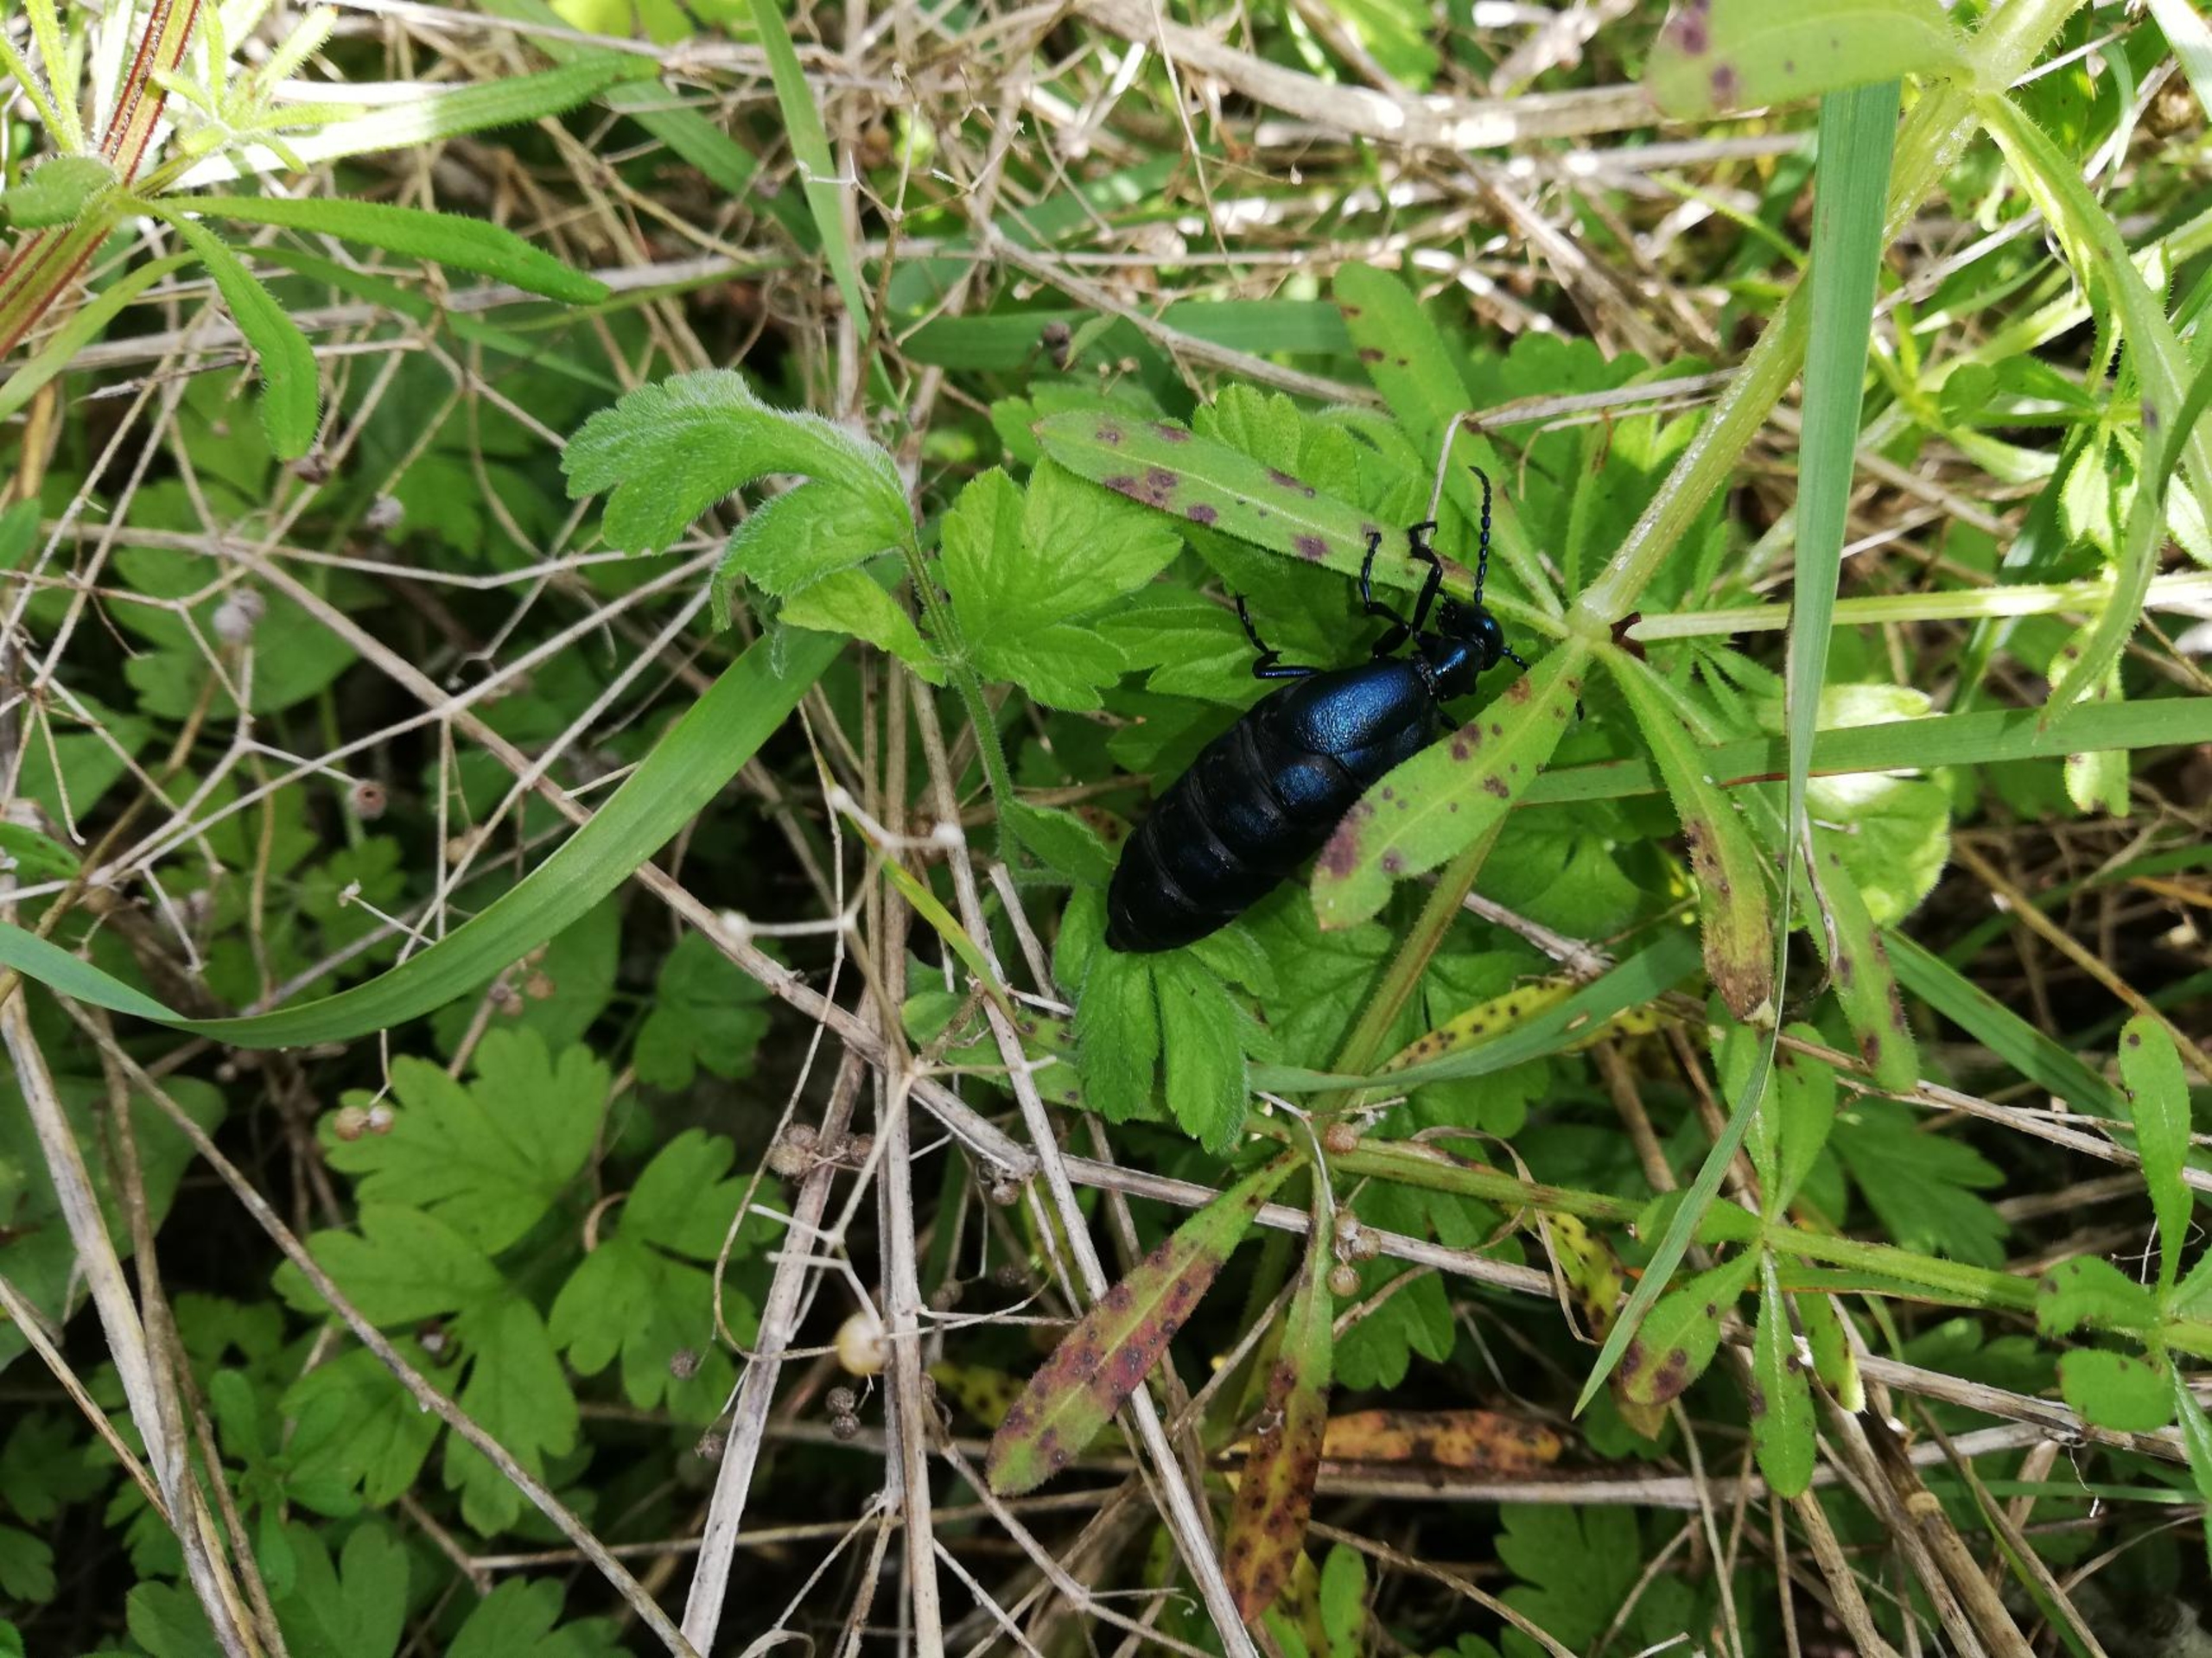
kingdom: Animalia
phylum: Arthropoda
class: Insecta
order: Coleoptera
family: Meloidae
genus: Meloe
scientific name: Meloe violaceus
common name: Blå oliebille
